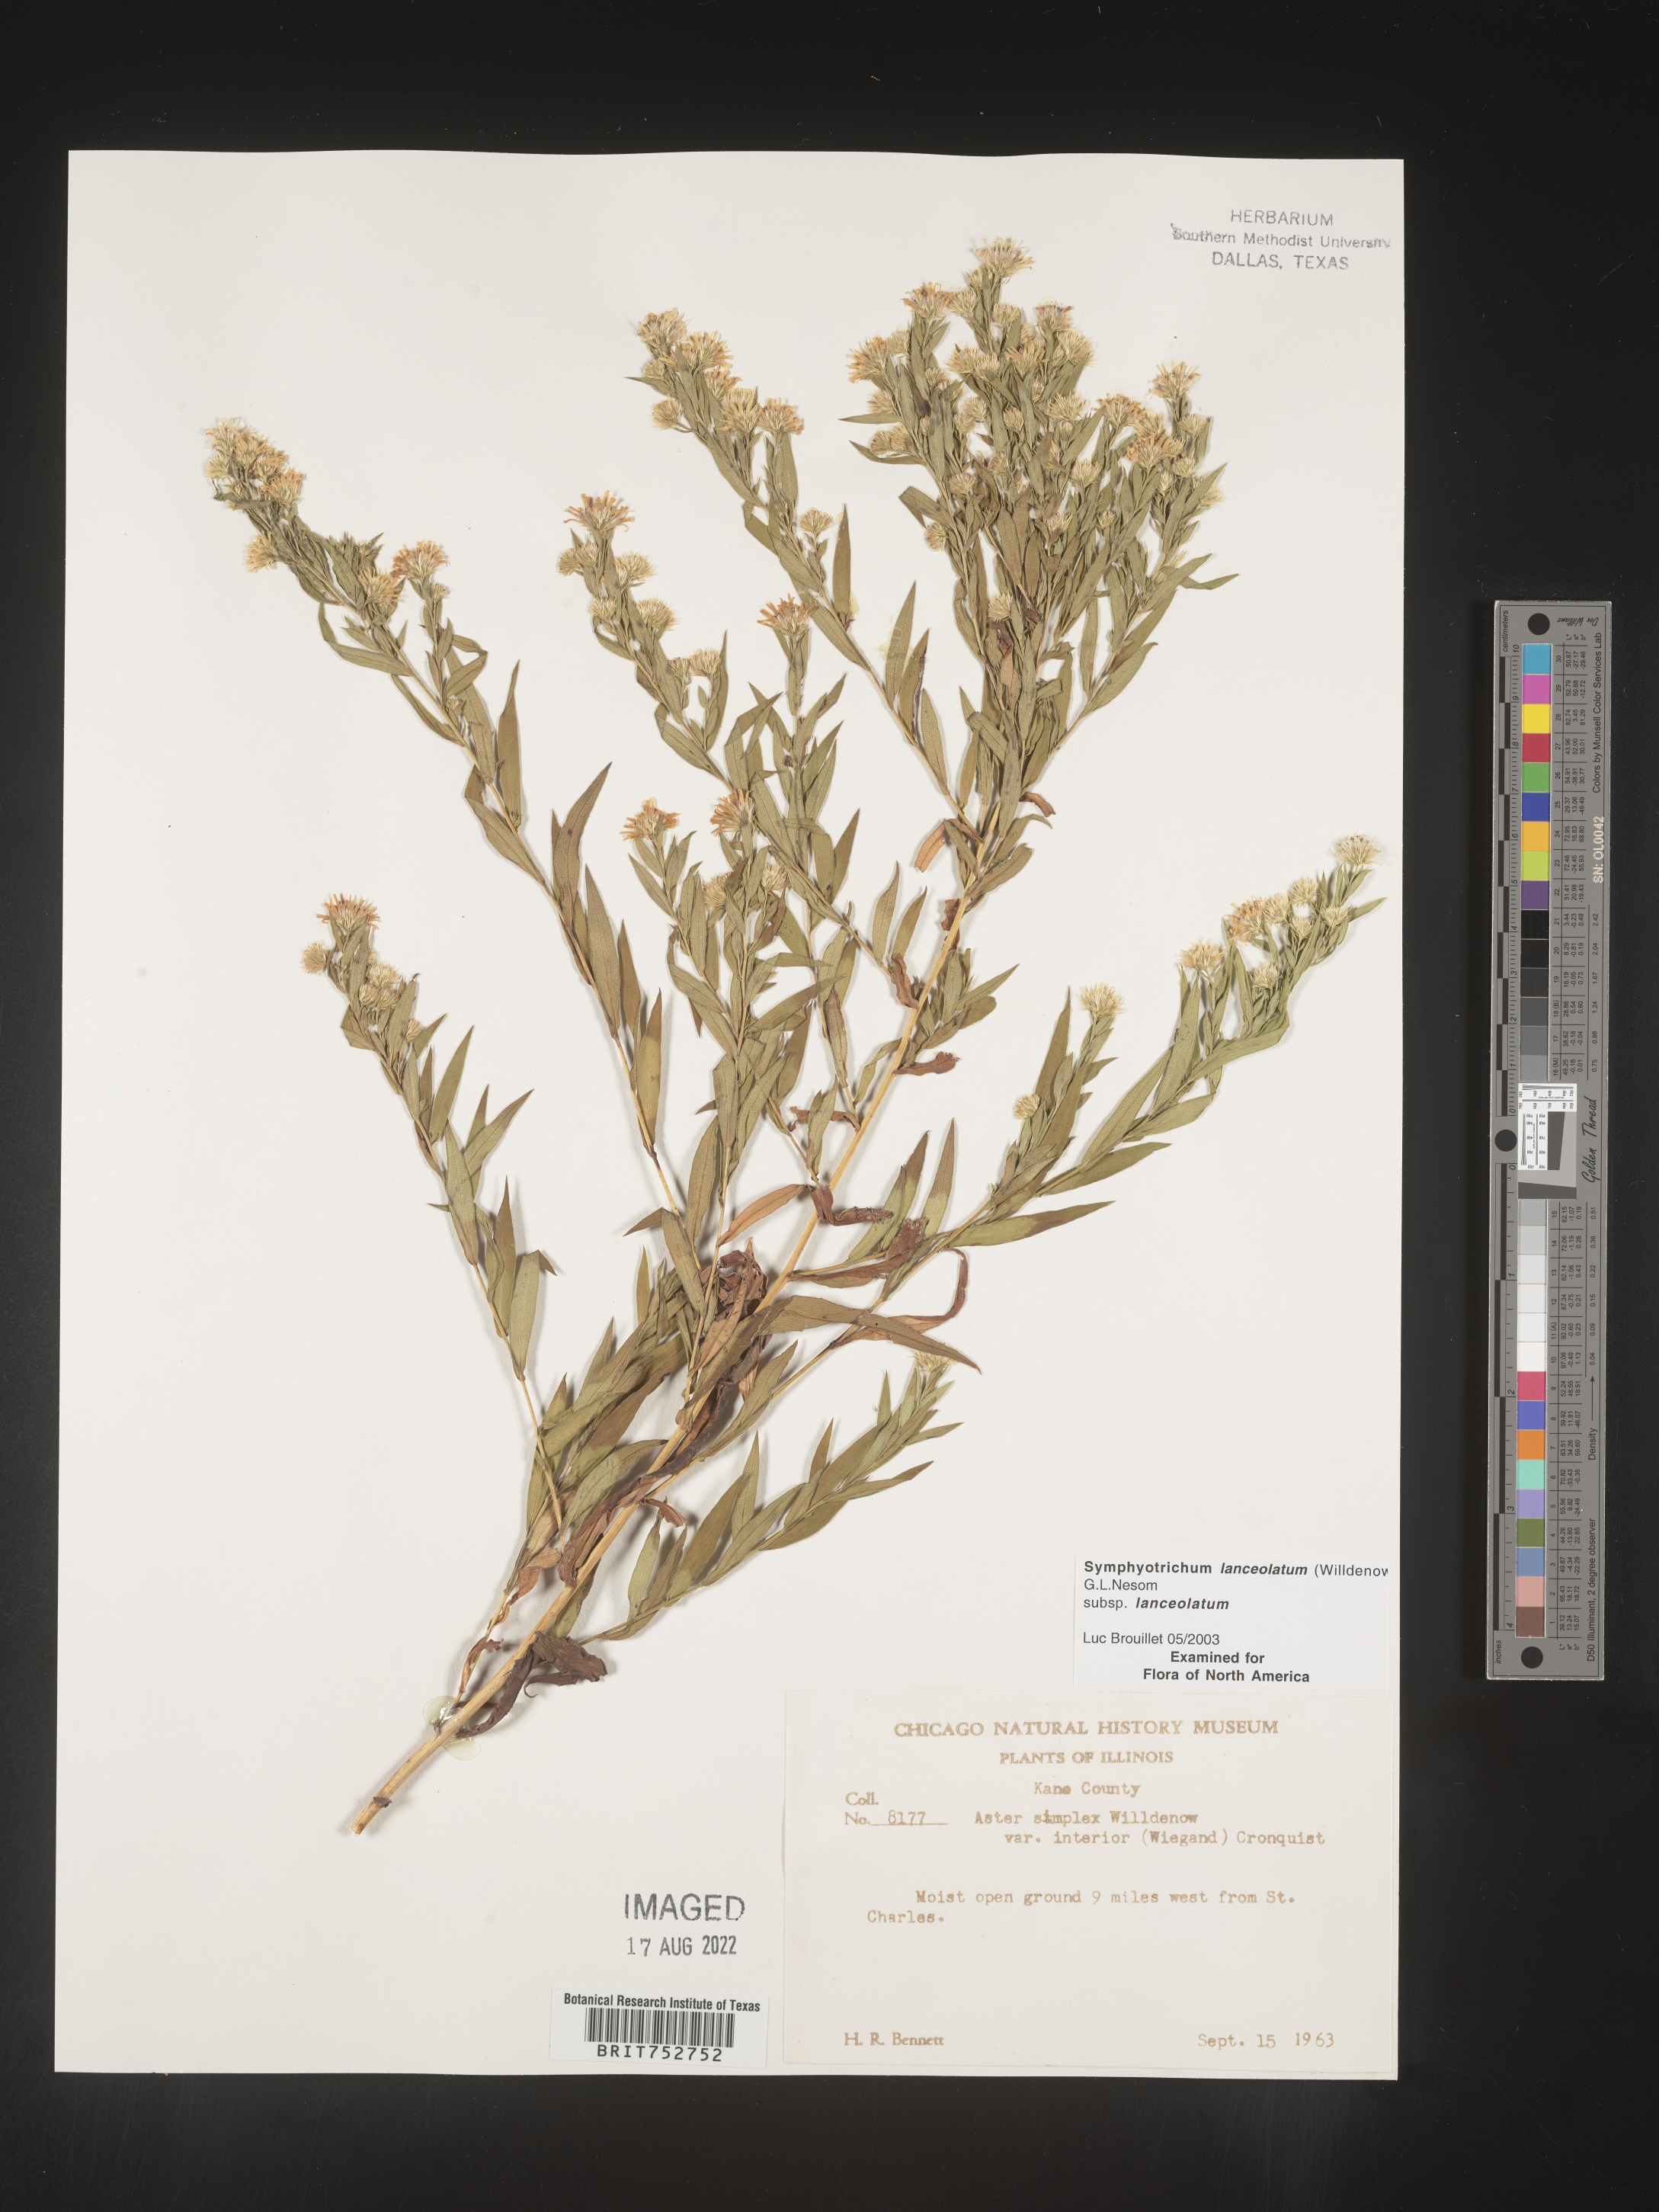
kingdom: Plantae
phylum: Tracheophyta
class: Magnoliopsida
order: Asterales
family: Asteraceae
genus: Symphyotrichum
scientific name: Symphyotrichum lanceolatum
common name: Panicled aster
